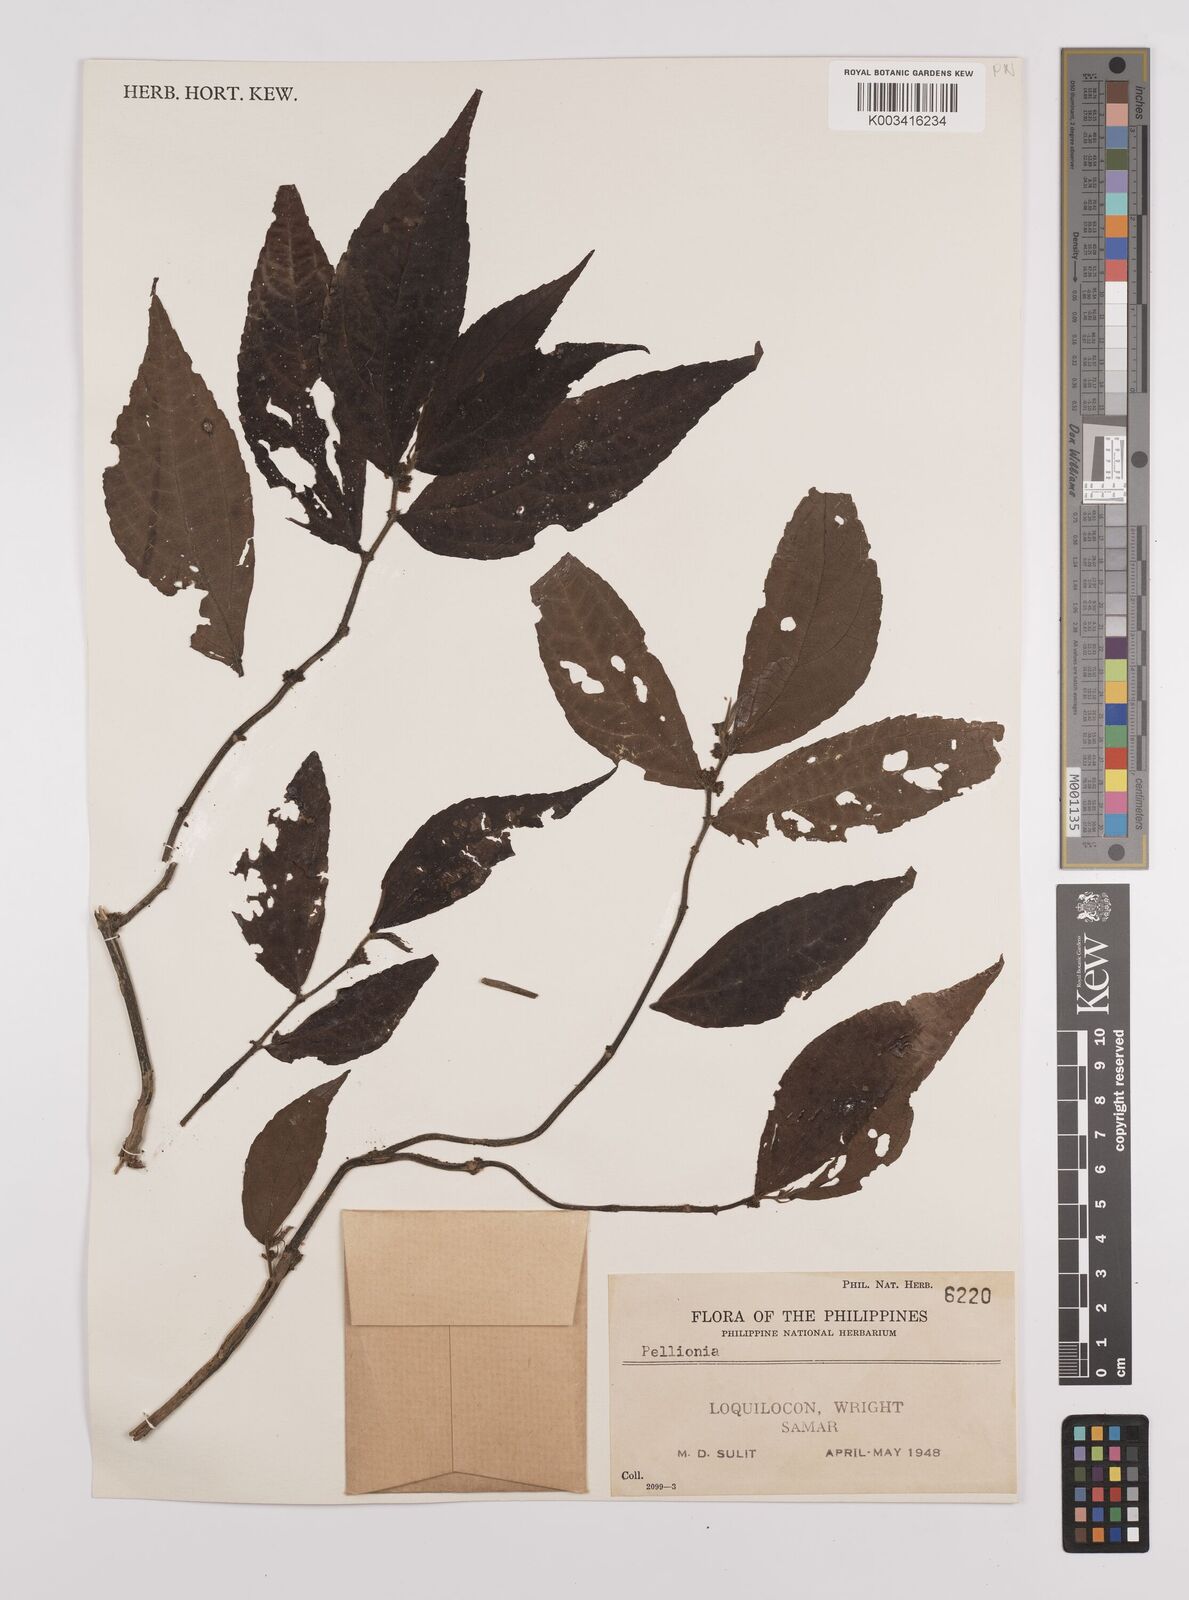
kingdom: Plantae
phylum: Tracheophyta
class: Magnoliopsida
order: Rosales
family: Urticaceae
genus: Elatostema
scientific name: Elatostema
